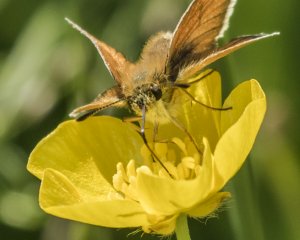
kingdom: Animalia
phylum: Arthropoda
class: Insecta
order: Lepidoptera
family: Hesperiidae
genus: Thymelicus
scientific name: Thymelicus lineola
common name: European Skipper
